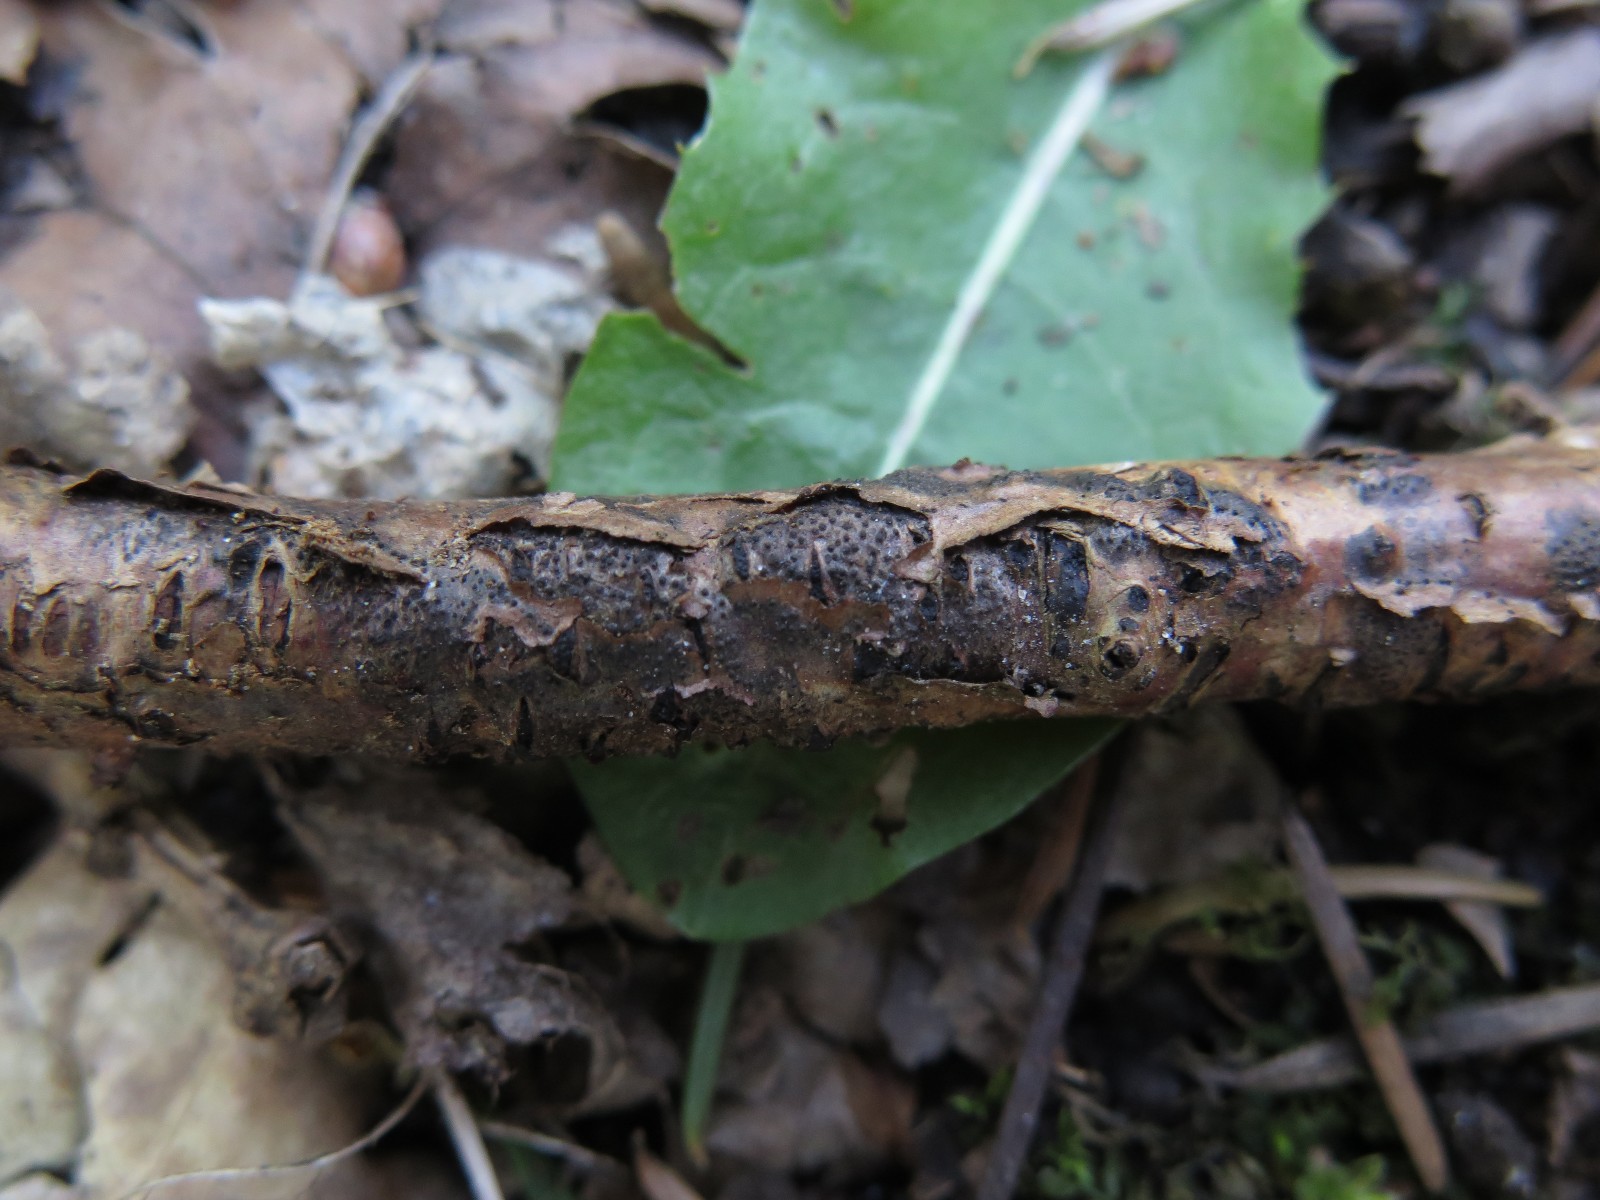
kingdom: Fungi
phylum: Ascomycota
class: Sordariomycetes
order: Xylariales
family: Diatrypaceae
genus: Eutypa
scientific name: Eutypa lata
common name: almindelig kulskorpe
